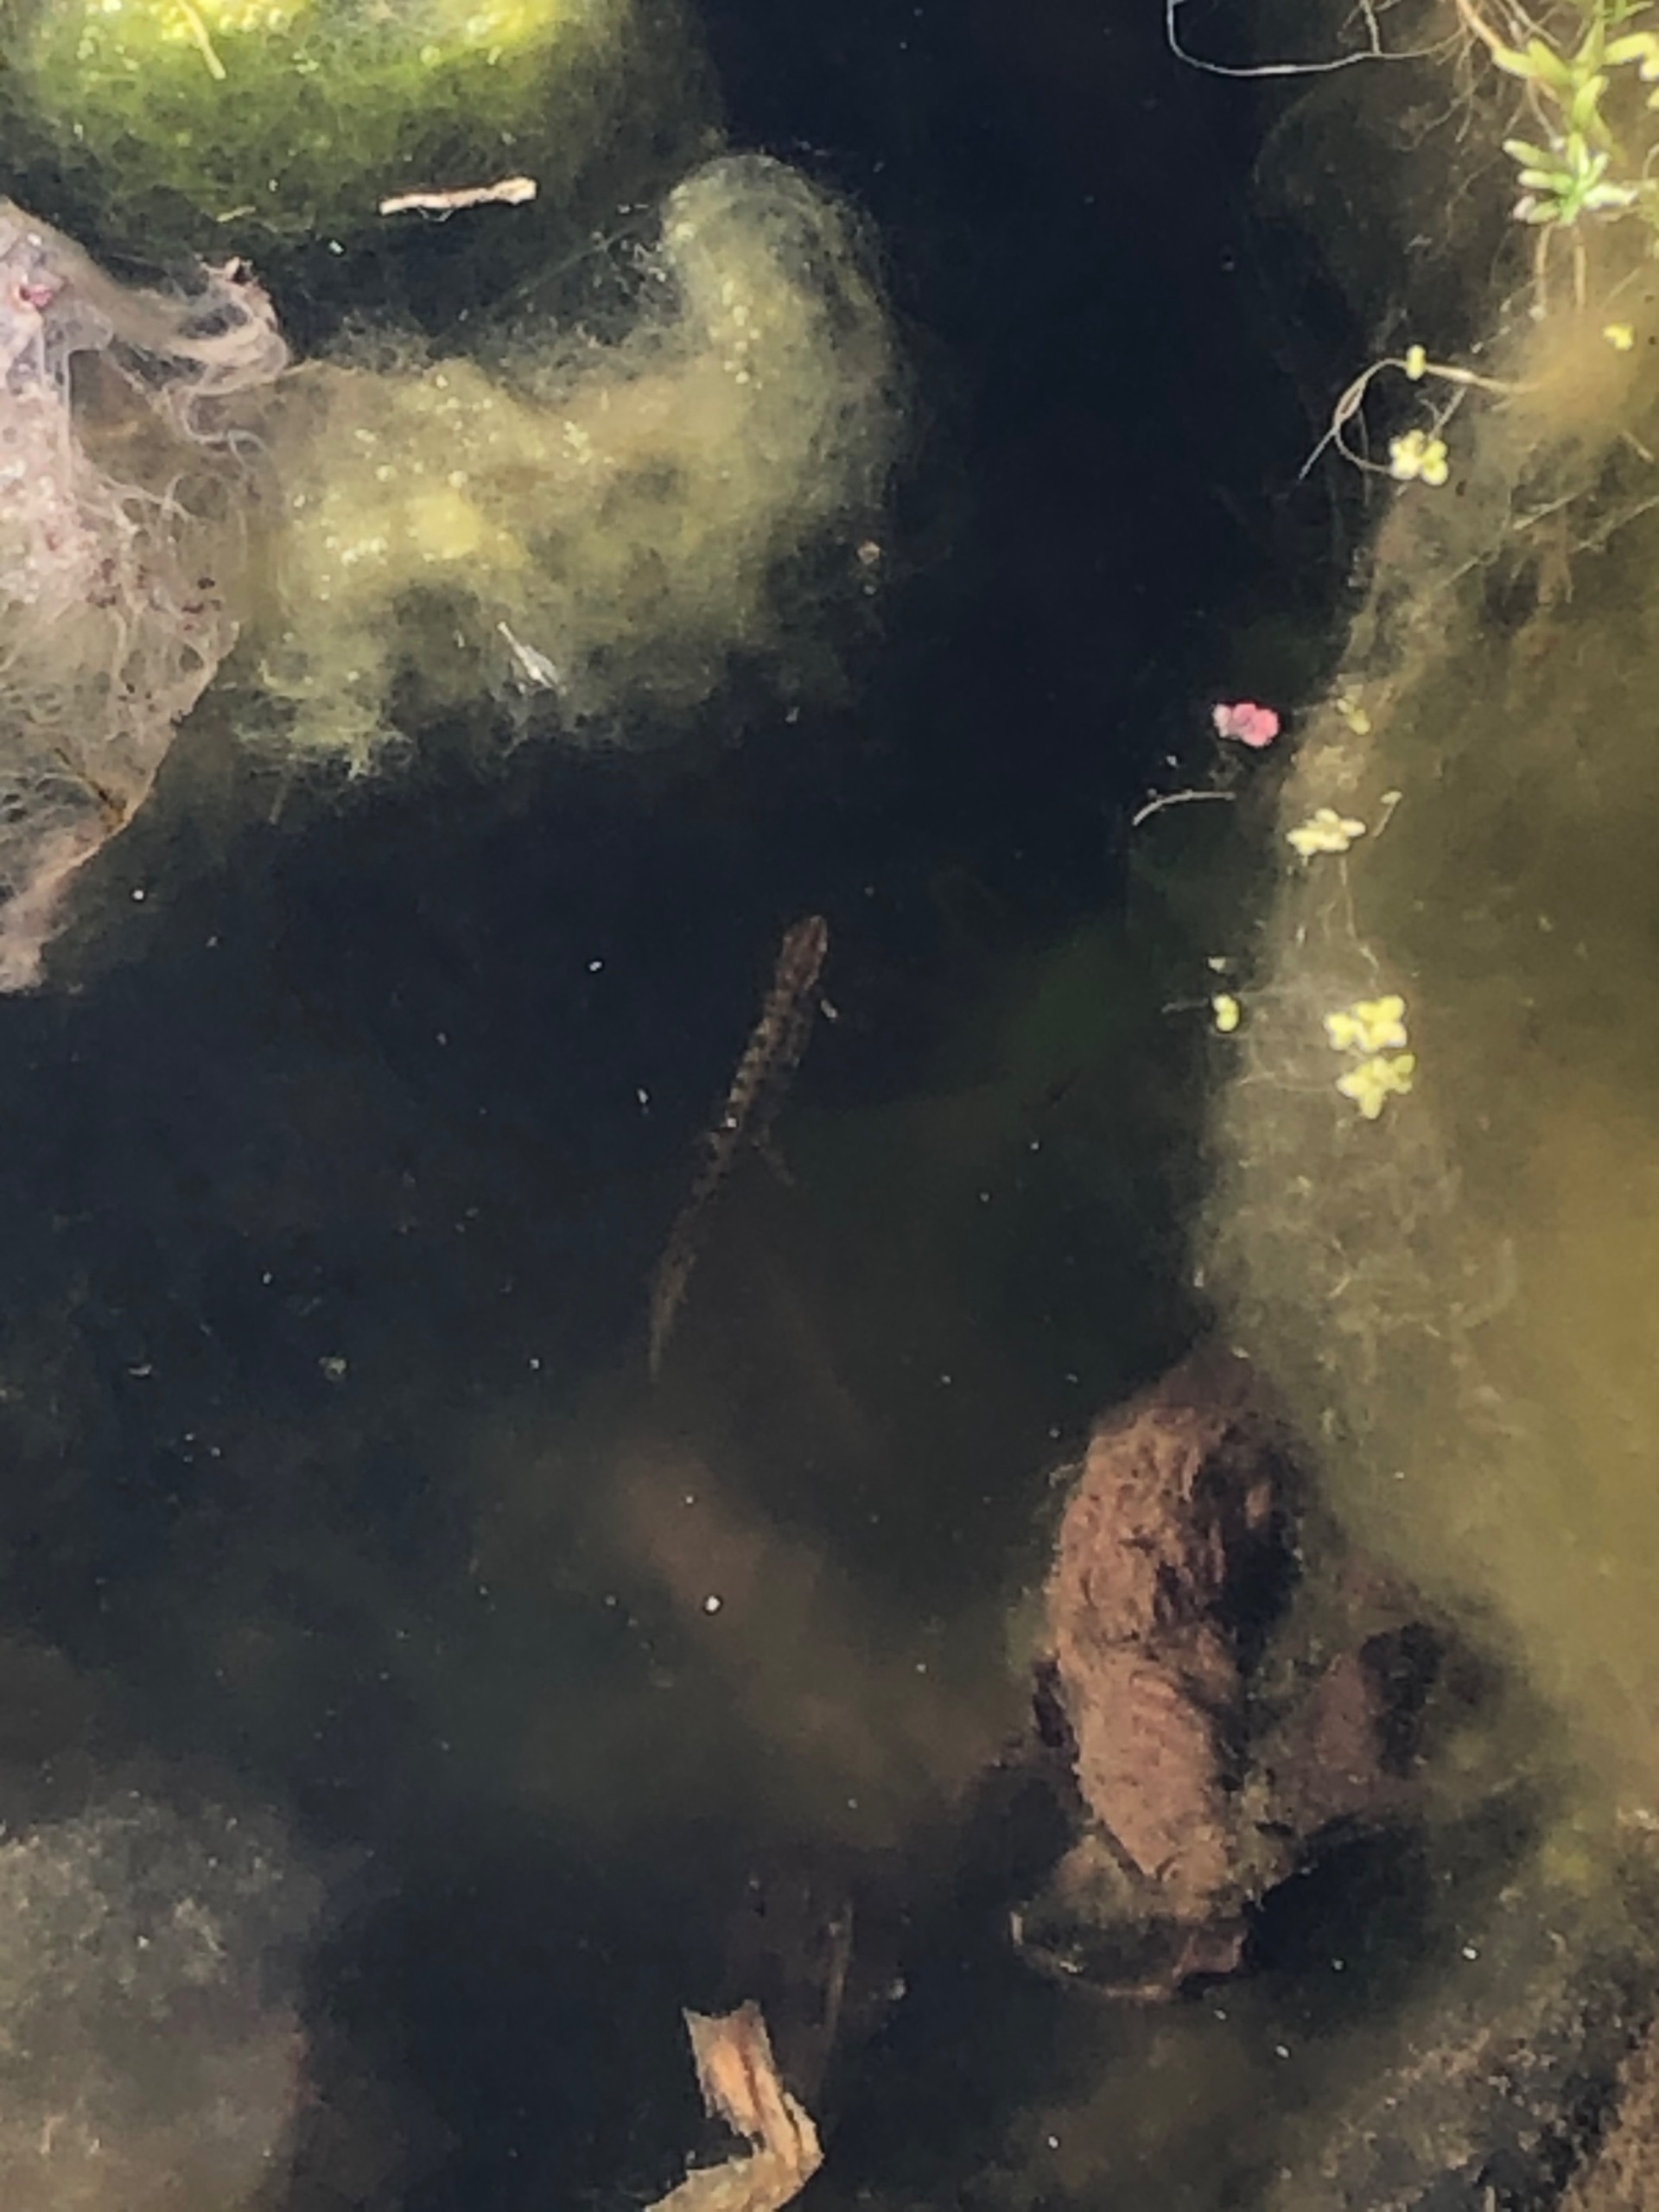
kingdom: Animalia
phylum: Chordata
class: Amphibia
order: Caudata
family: Salamandridae
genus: Lissotriton
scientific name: Lissotriton vulgaris
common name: Lille vandsalamander
